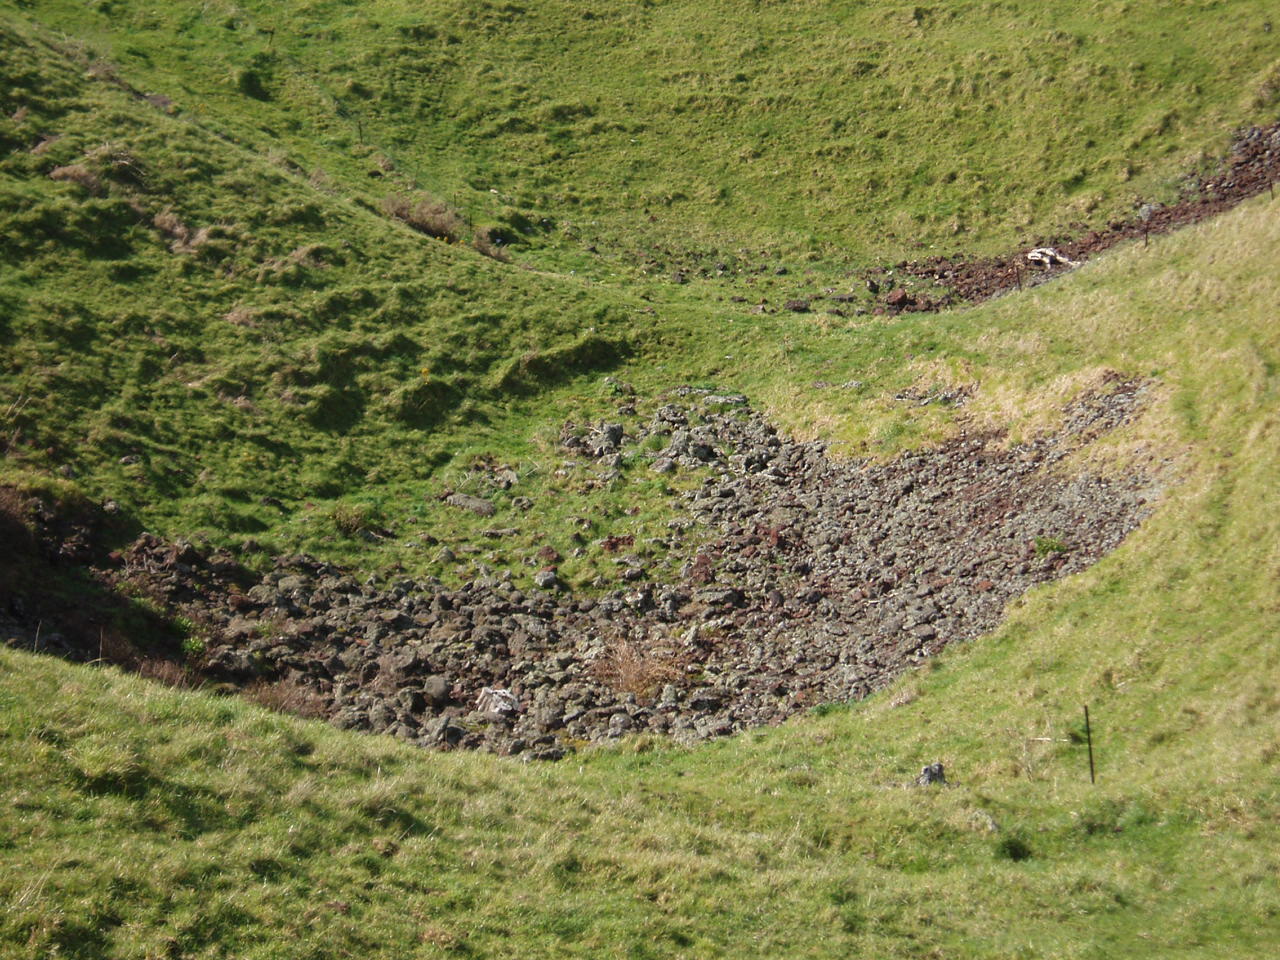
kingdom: Plantae
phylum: Tracheophyta
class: Liliopsida
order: Poales
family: Poaceae
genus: Poa
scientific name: Poa annua
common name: Annual bluegrass
